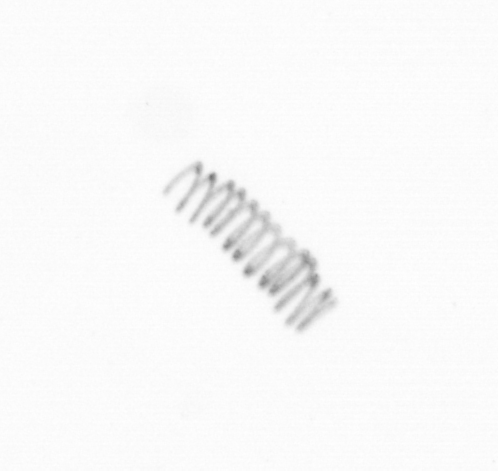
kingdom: Chromista
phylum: Ochrophyta
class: Bacillariophyceae
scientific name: Bacillariophyceae
